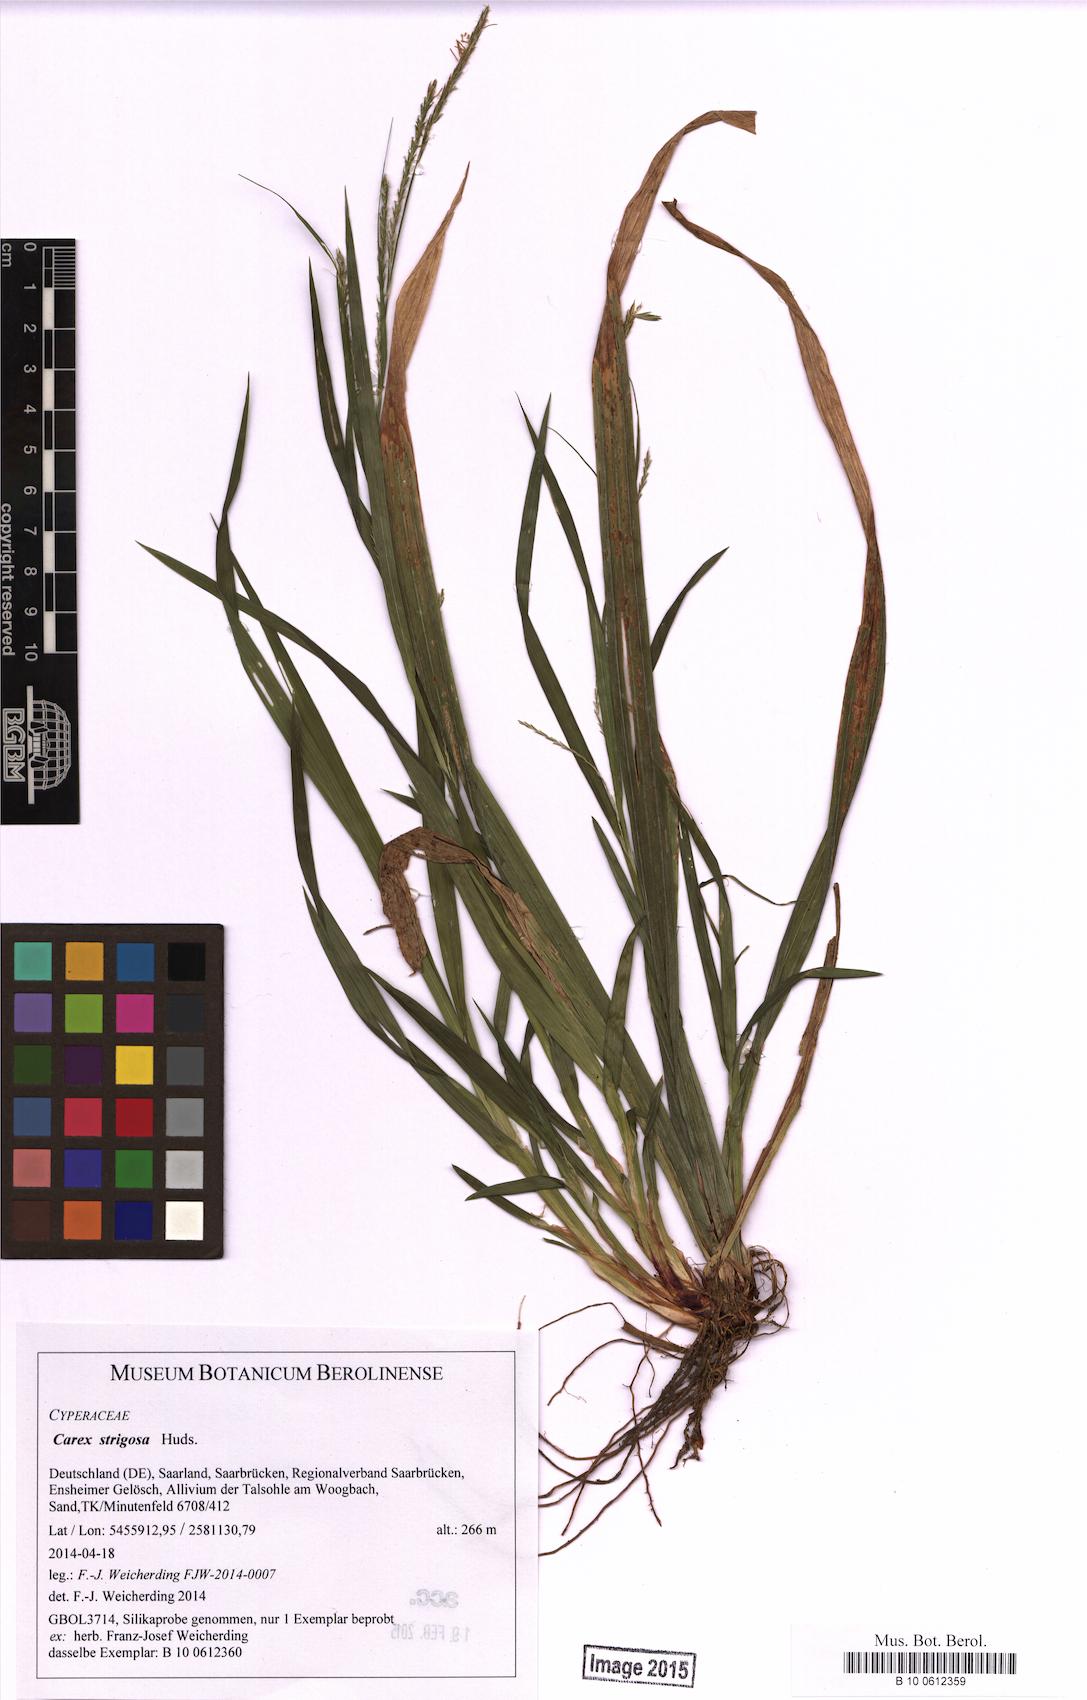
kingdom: Plantae
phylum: Tracheophyta
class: Liliopsida
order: Poales
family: Cyperaceae
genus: Carex
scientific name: Carex strigosa
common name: Thin-spiked wood-sedge
